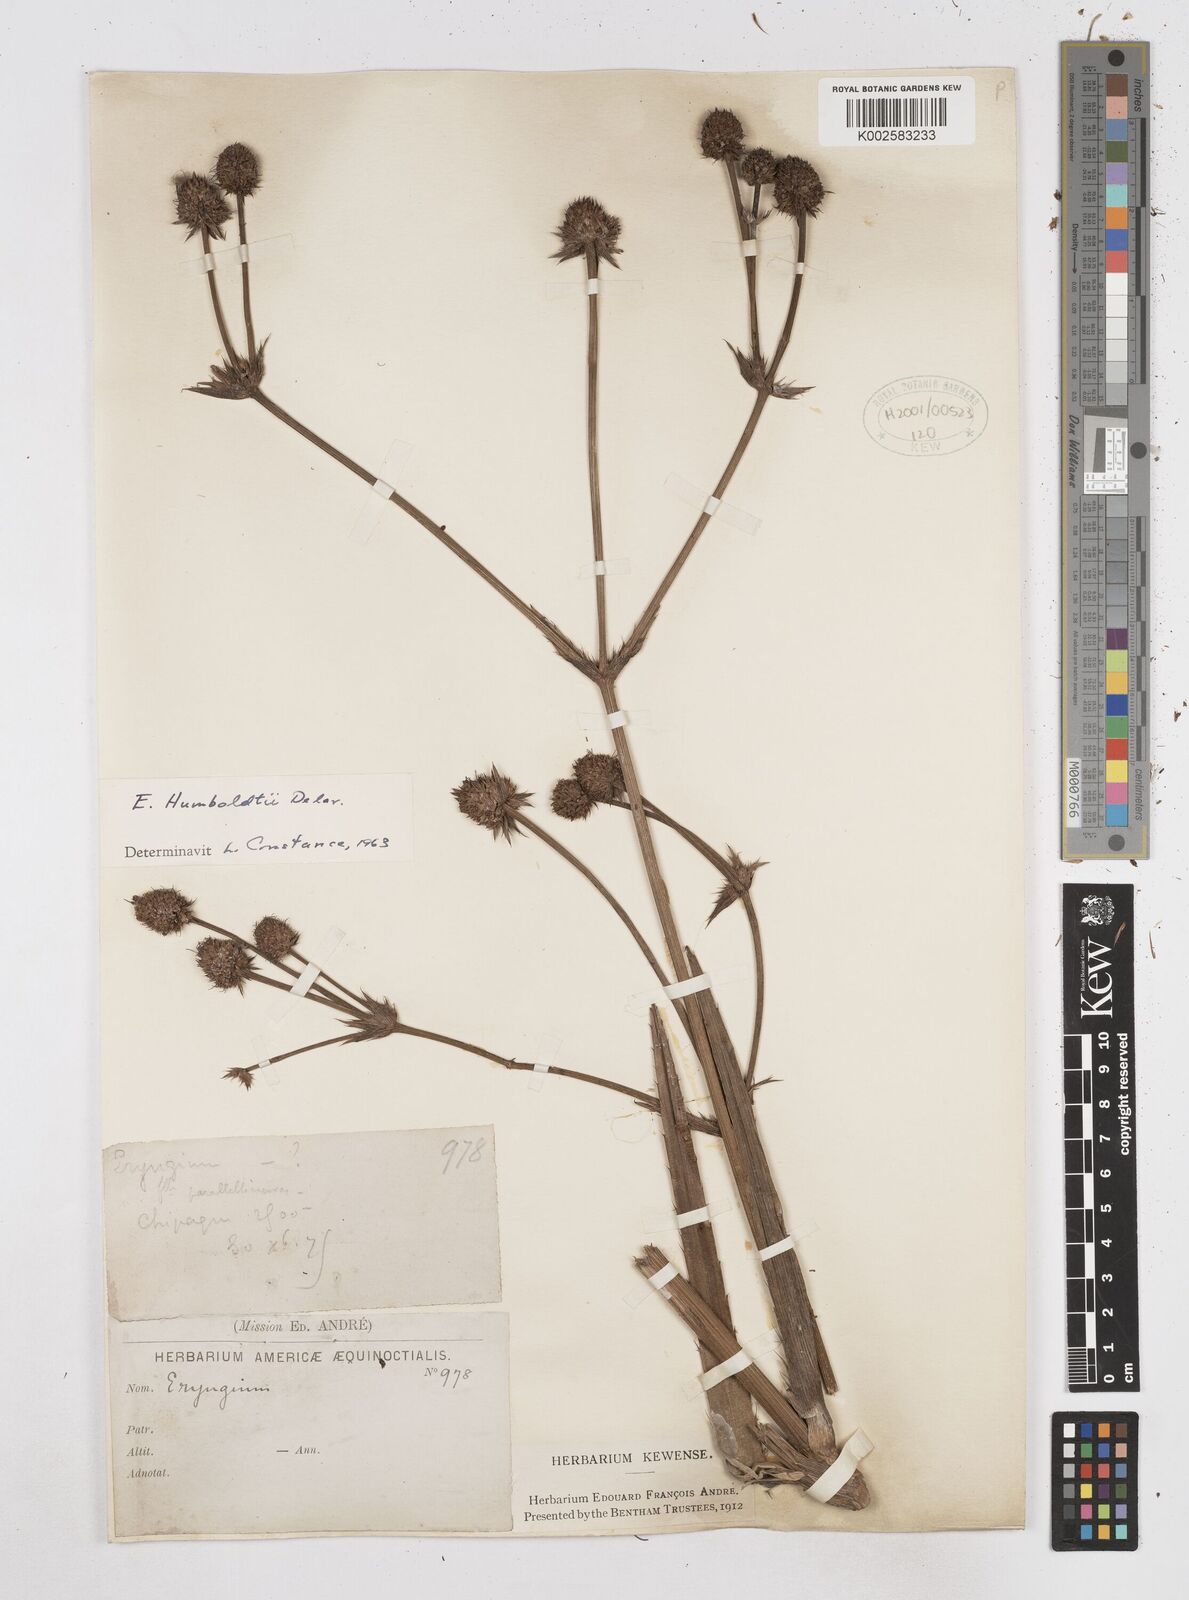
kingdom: Plantae
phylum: Tracheophyta
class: Magnoliopsida
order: Apiales
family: Apiaceae
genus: Eryngium
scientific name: Eryngium humboldtii
